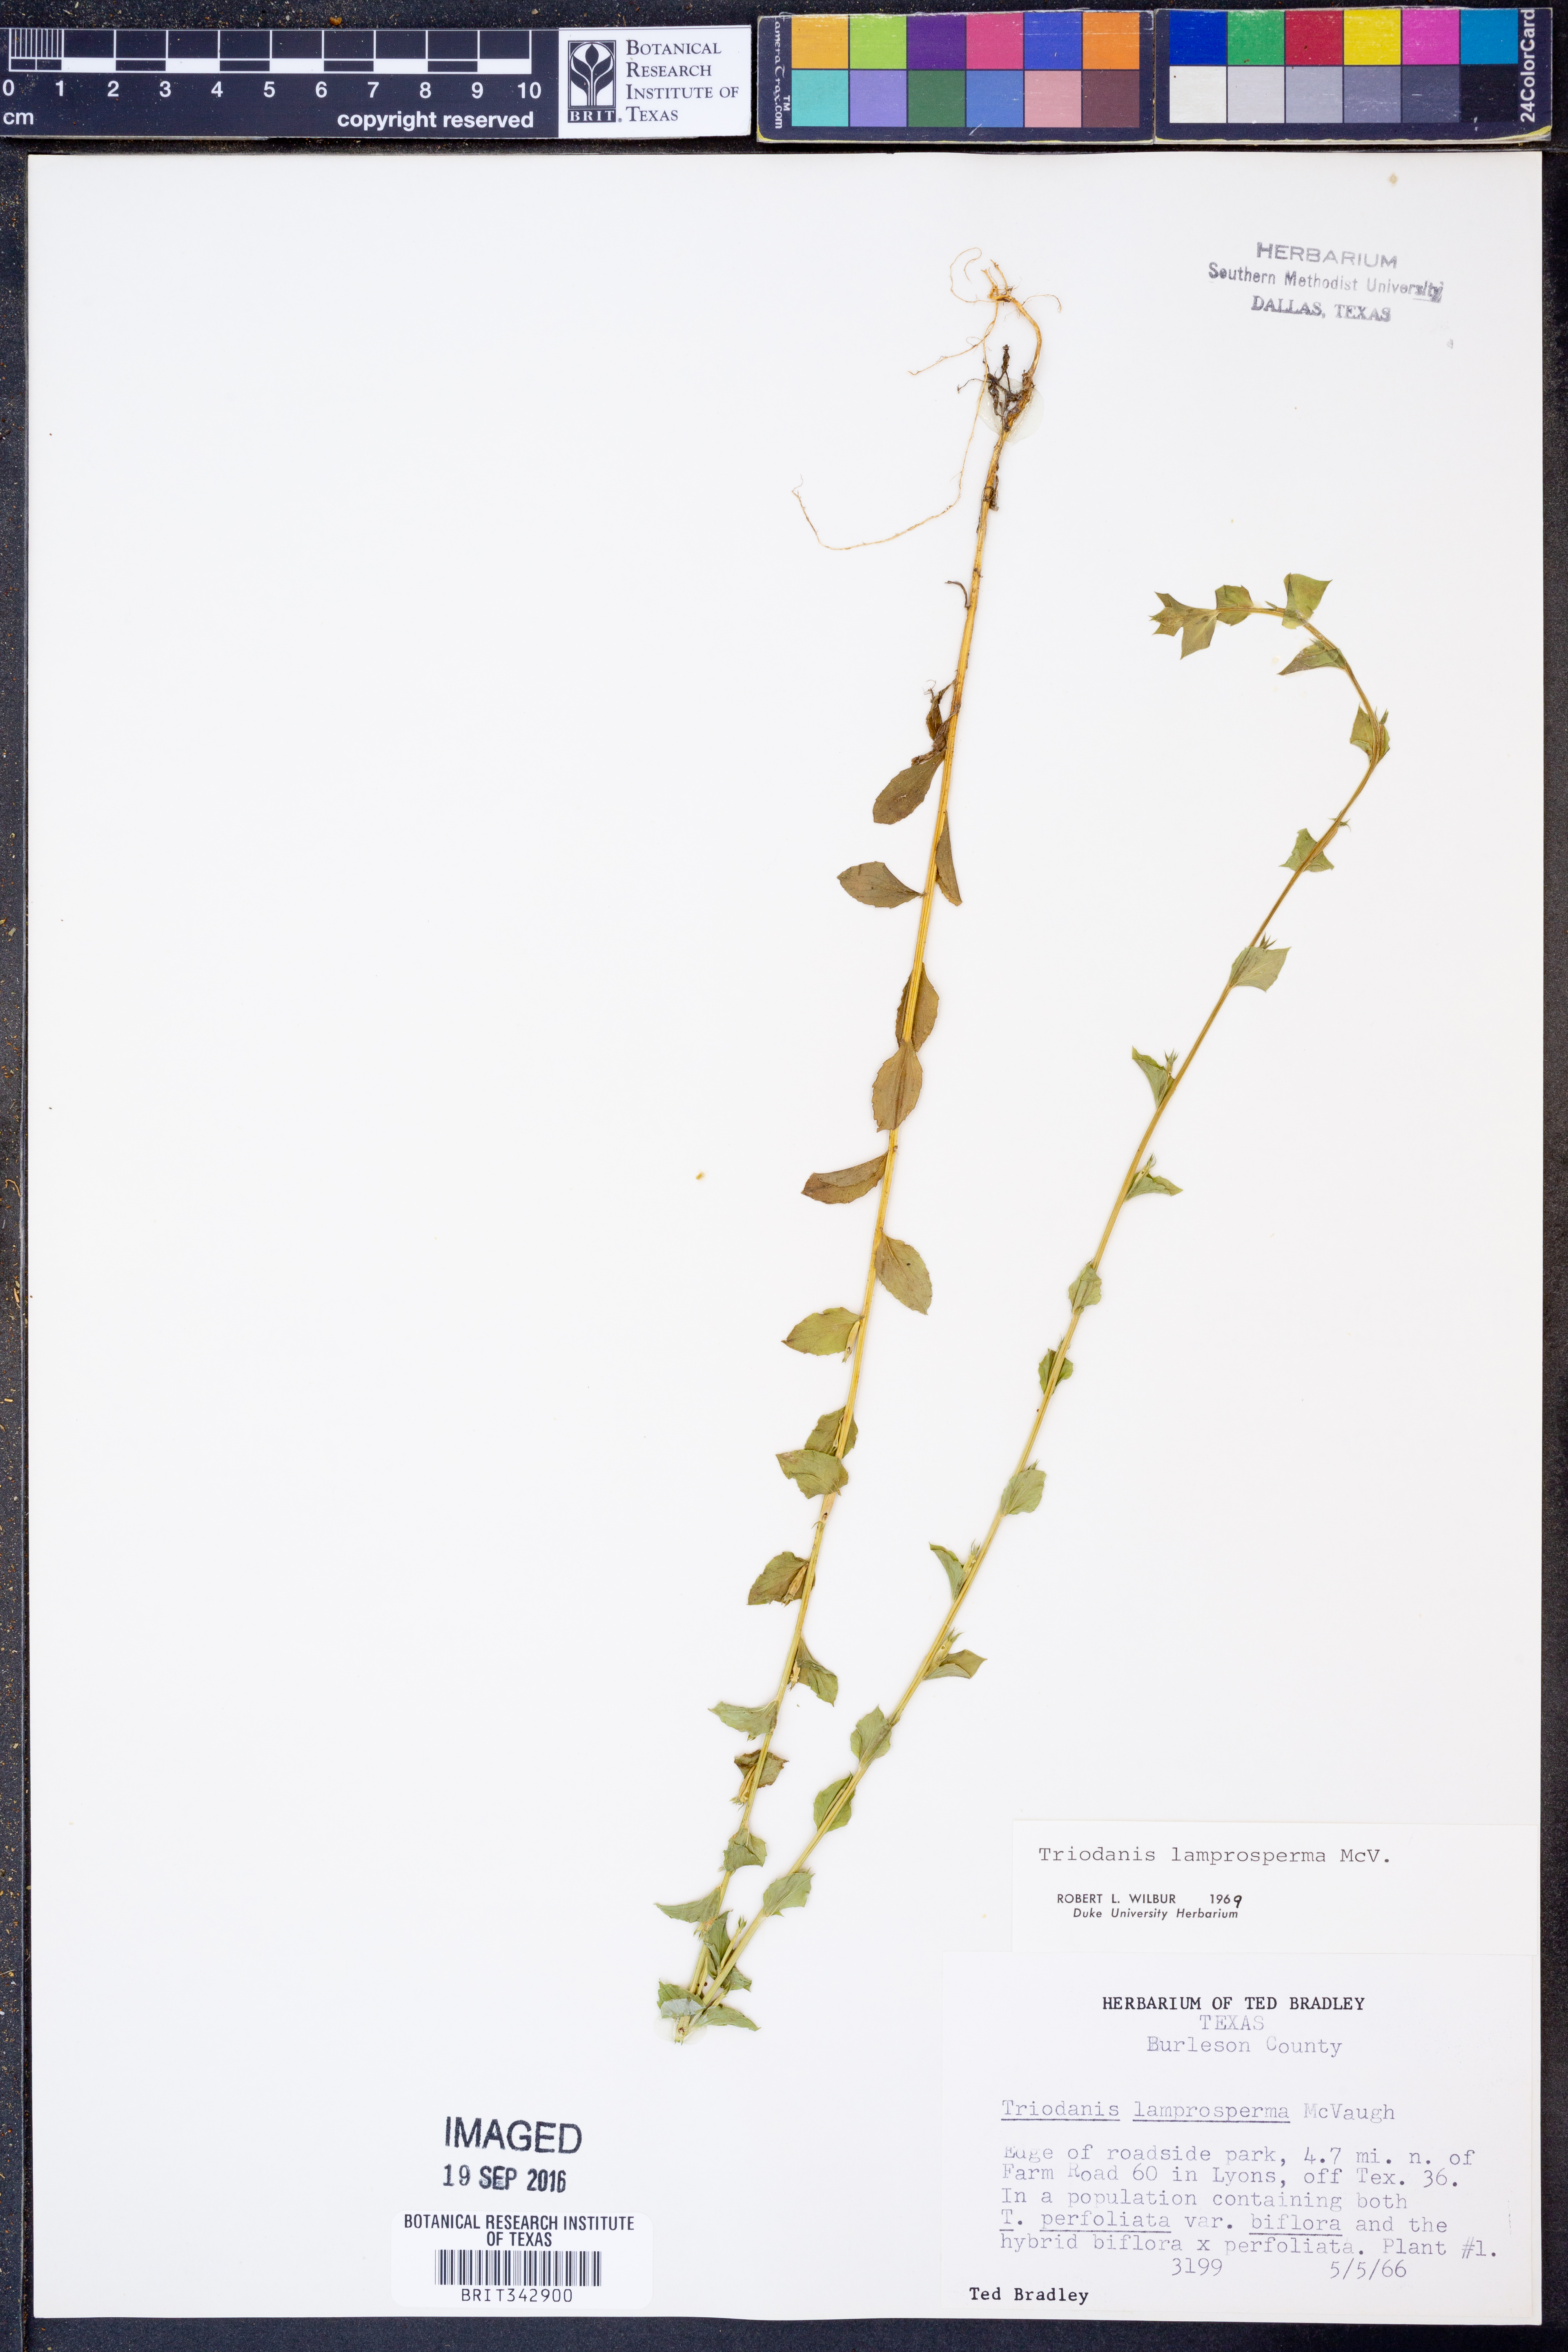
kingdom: Plantae
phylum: Tracheophyta
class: Magnoliopsida
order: Asterales
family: Campanulaceae
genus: Triodanis
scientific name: Triodanis lamprosperma
